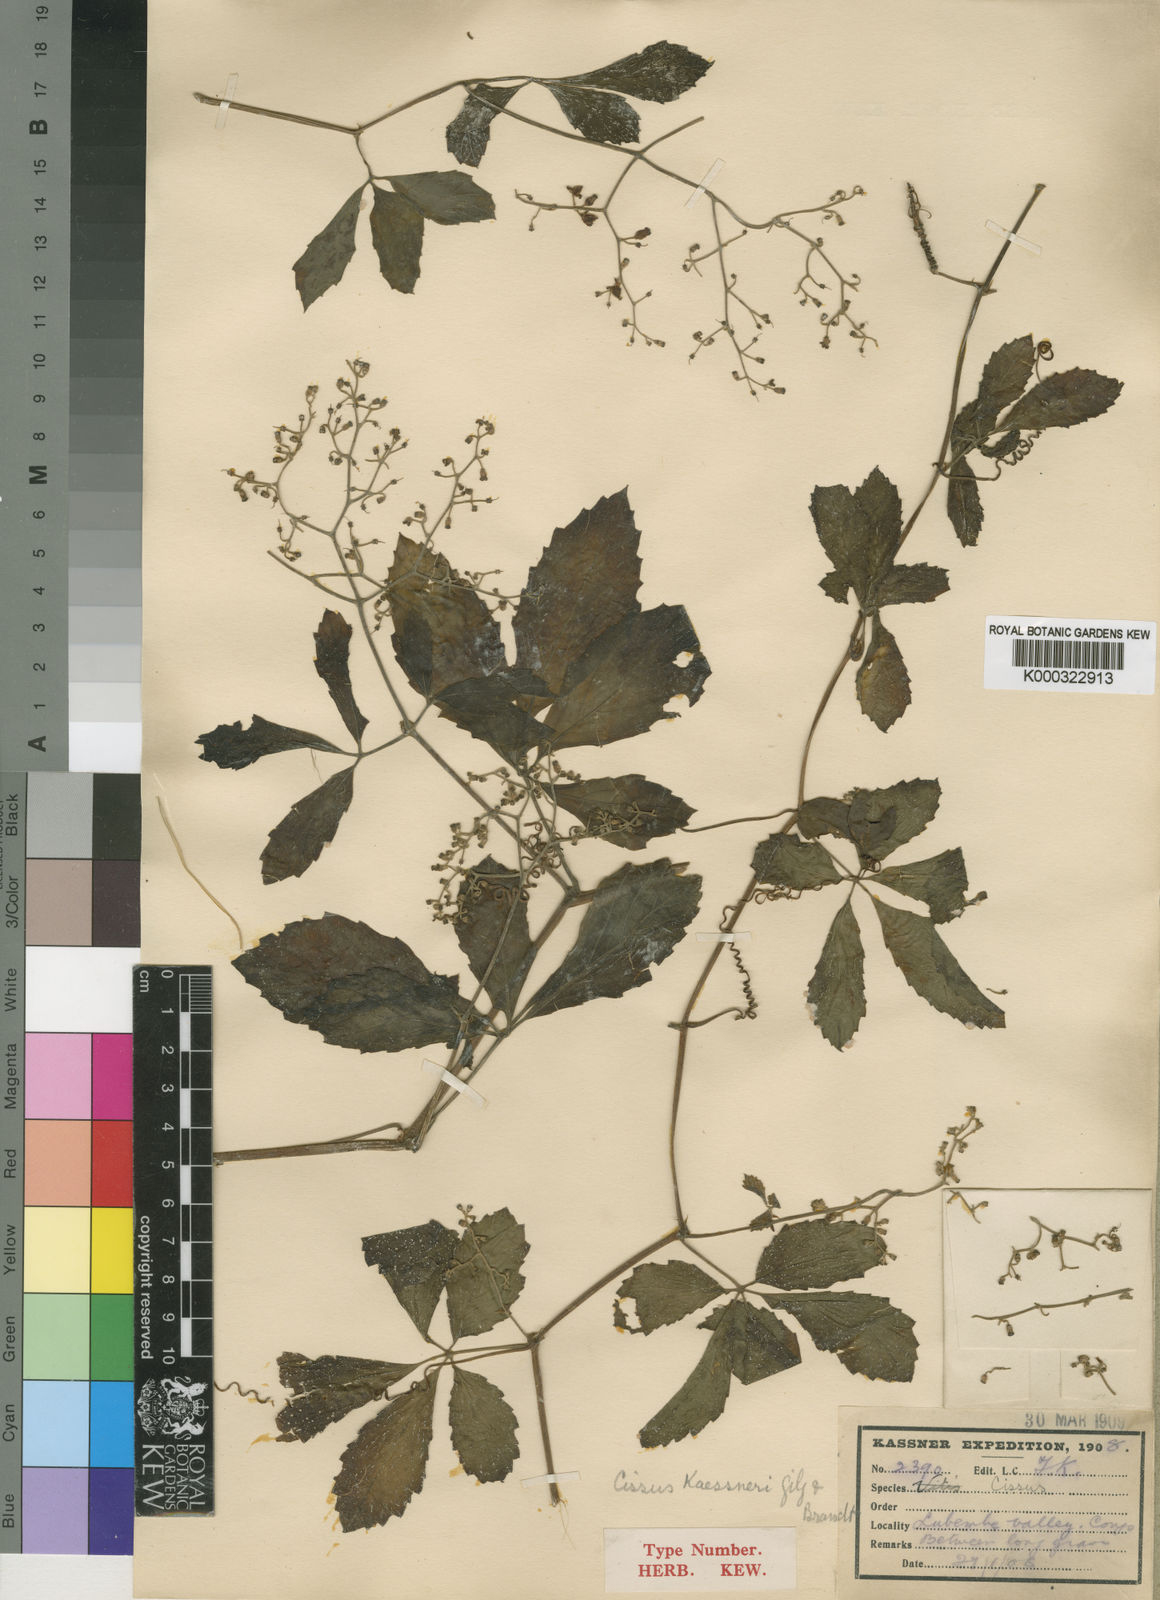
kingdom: Plantae
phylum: Tracheophyta
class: Magnoliopsida
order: Vitales
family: Vitaceae
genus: Cyphostemma
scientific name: Cyphostemma cyphopetalum
